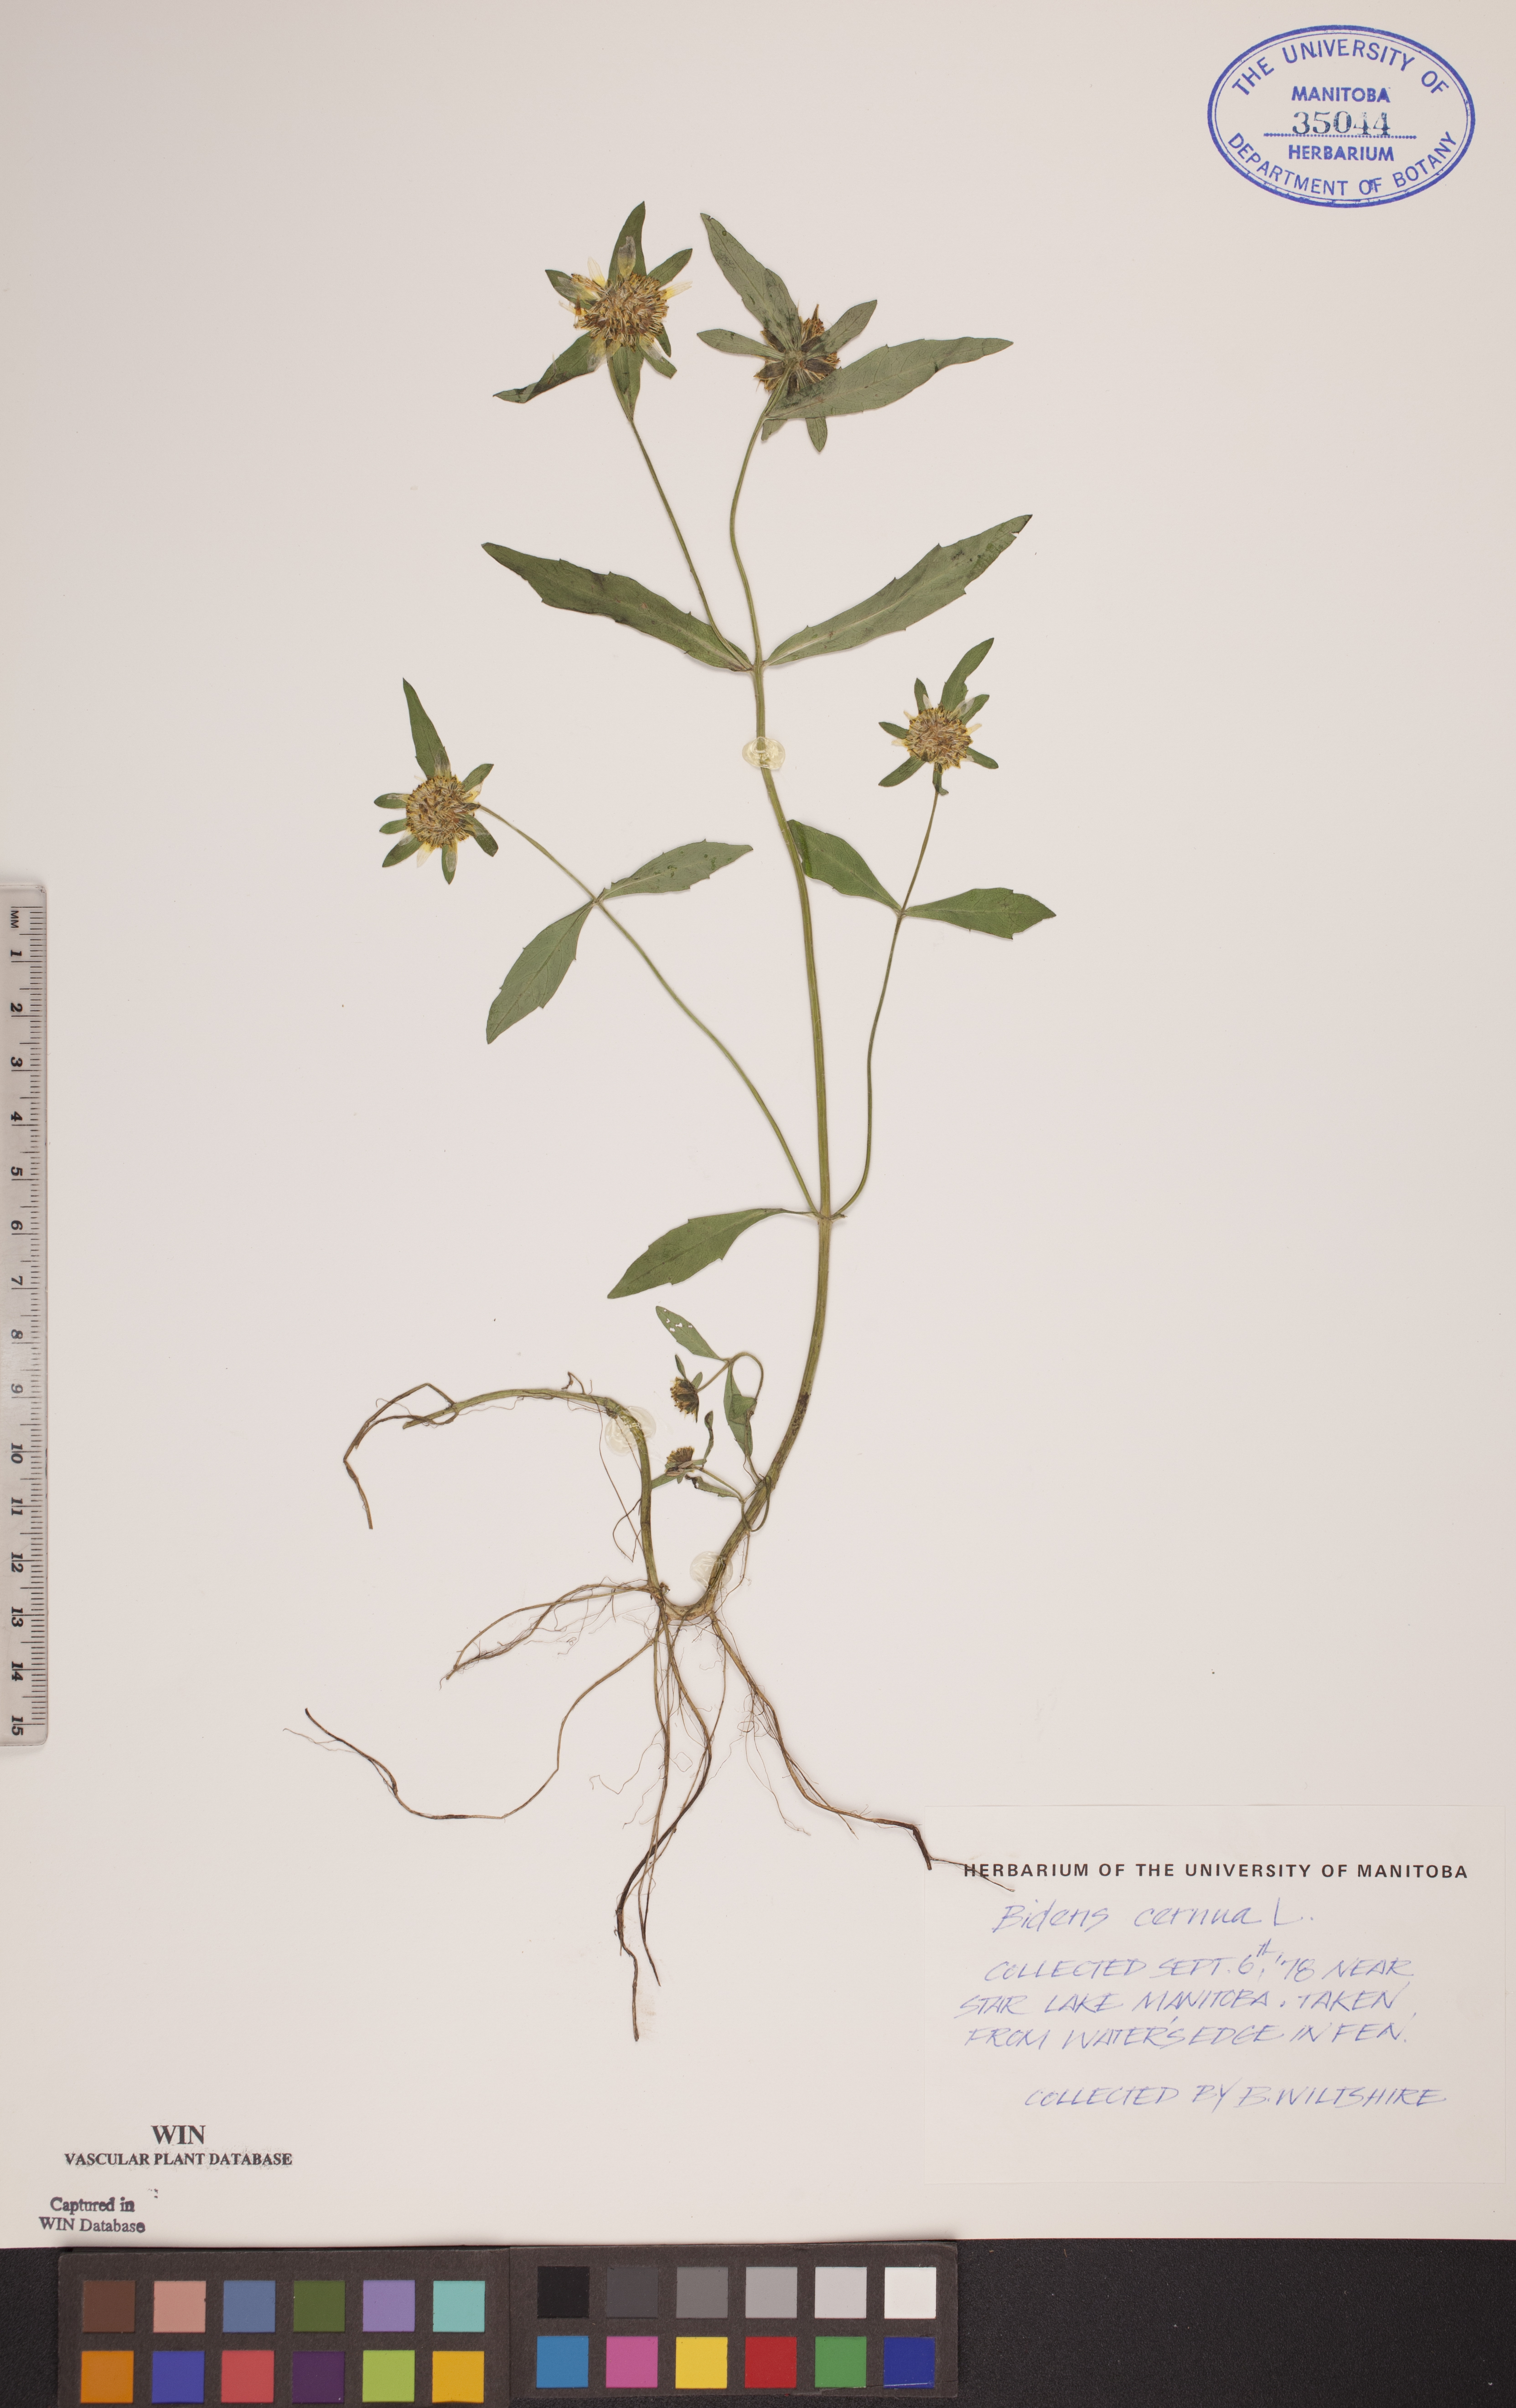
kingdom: Plantae
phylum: Tracheophyta
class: Magnoliopsida
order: Asterales
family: Asteraceae
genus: Bidens
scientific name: Bidens cernua
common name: Nodding bur-marigold
